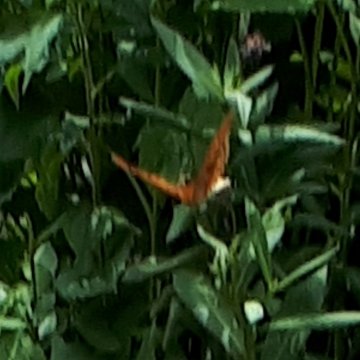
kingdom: Animalia
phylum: Arthropoda
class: Insecta
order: Lepidoptera
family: Nymphalidae
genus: Speyeria
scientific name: Speyeria cybele
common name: Great Spangled Fritillary
